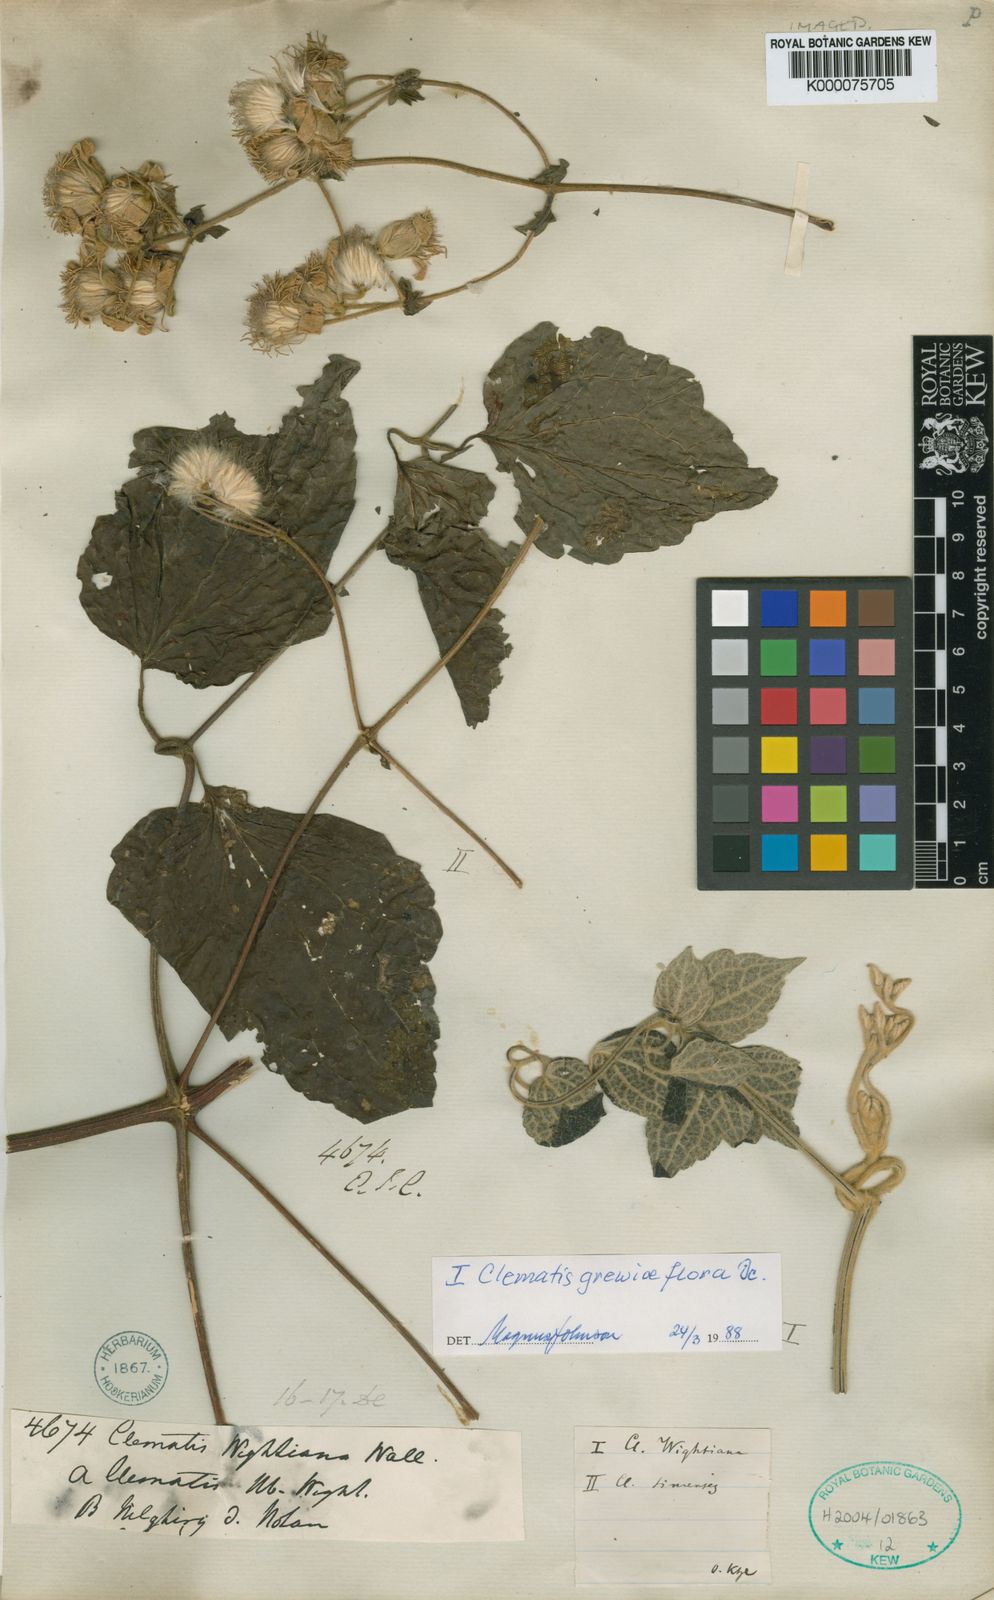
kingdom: Plantae
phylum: Tracheophyta
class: Magnoliopsida
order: Ranunculales
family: Ranunculaceae
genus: Clematis
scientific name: Clematis
